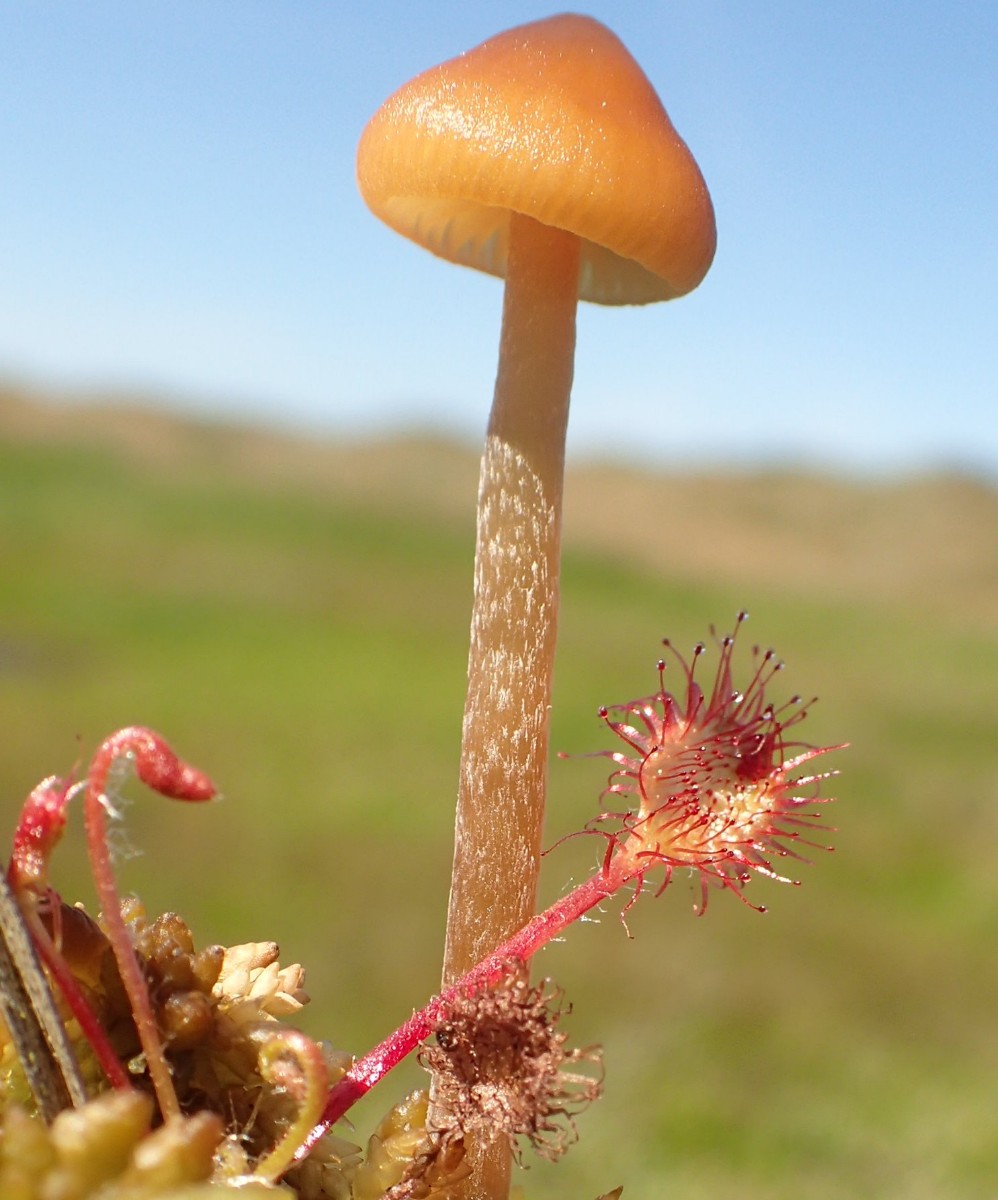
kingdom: Fungi
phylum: Basidiomycota
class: Agaricomycetes
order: Agaricales
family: Hymenogastraceae
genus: Galerina
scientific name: Galerina hybrida
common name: hængesæk-hjelmhat
